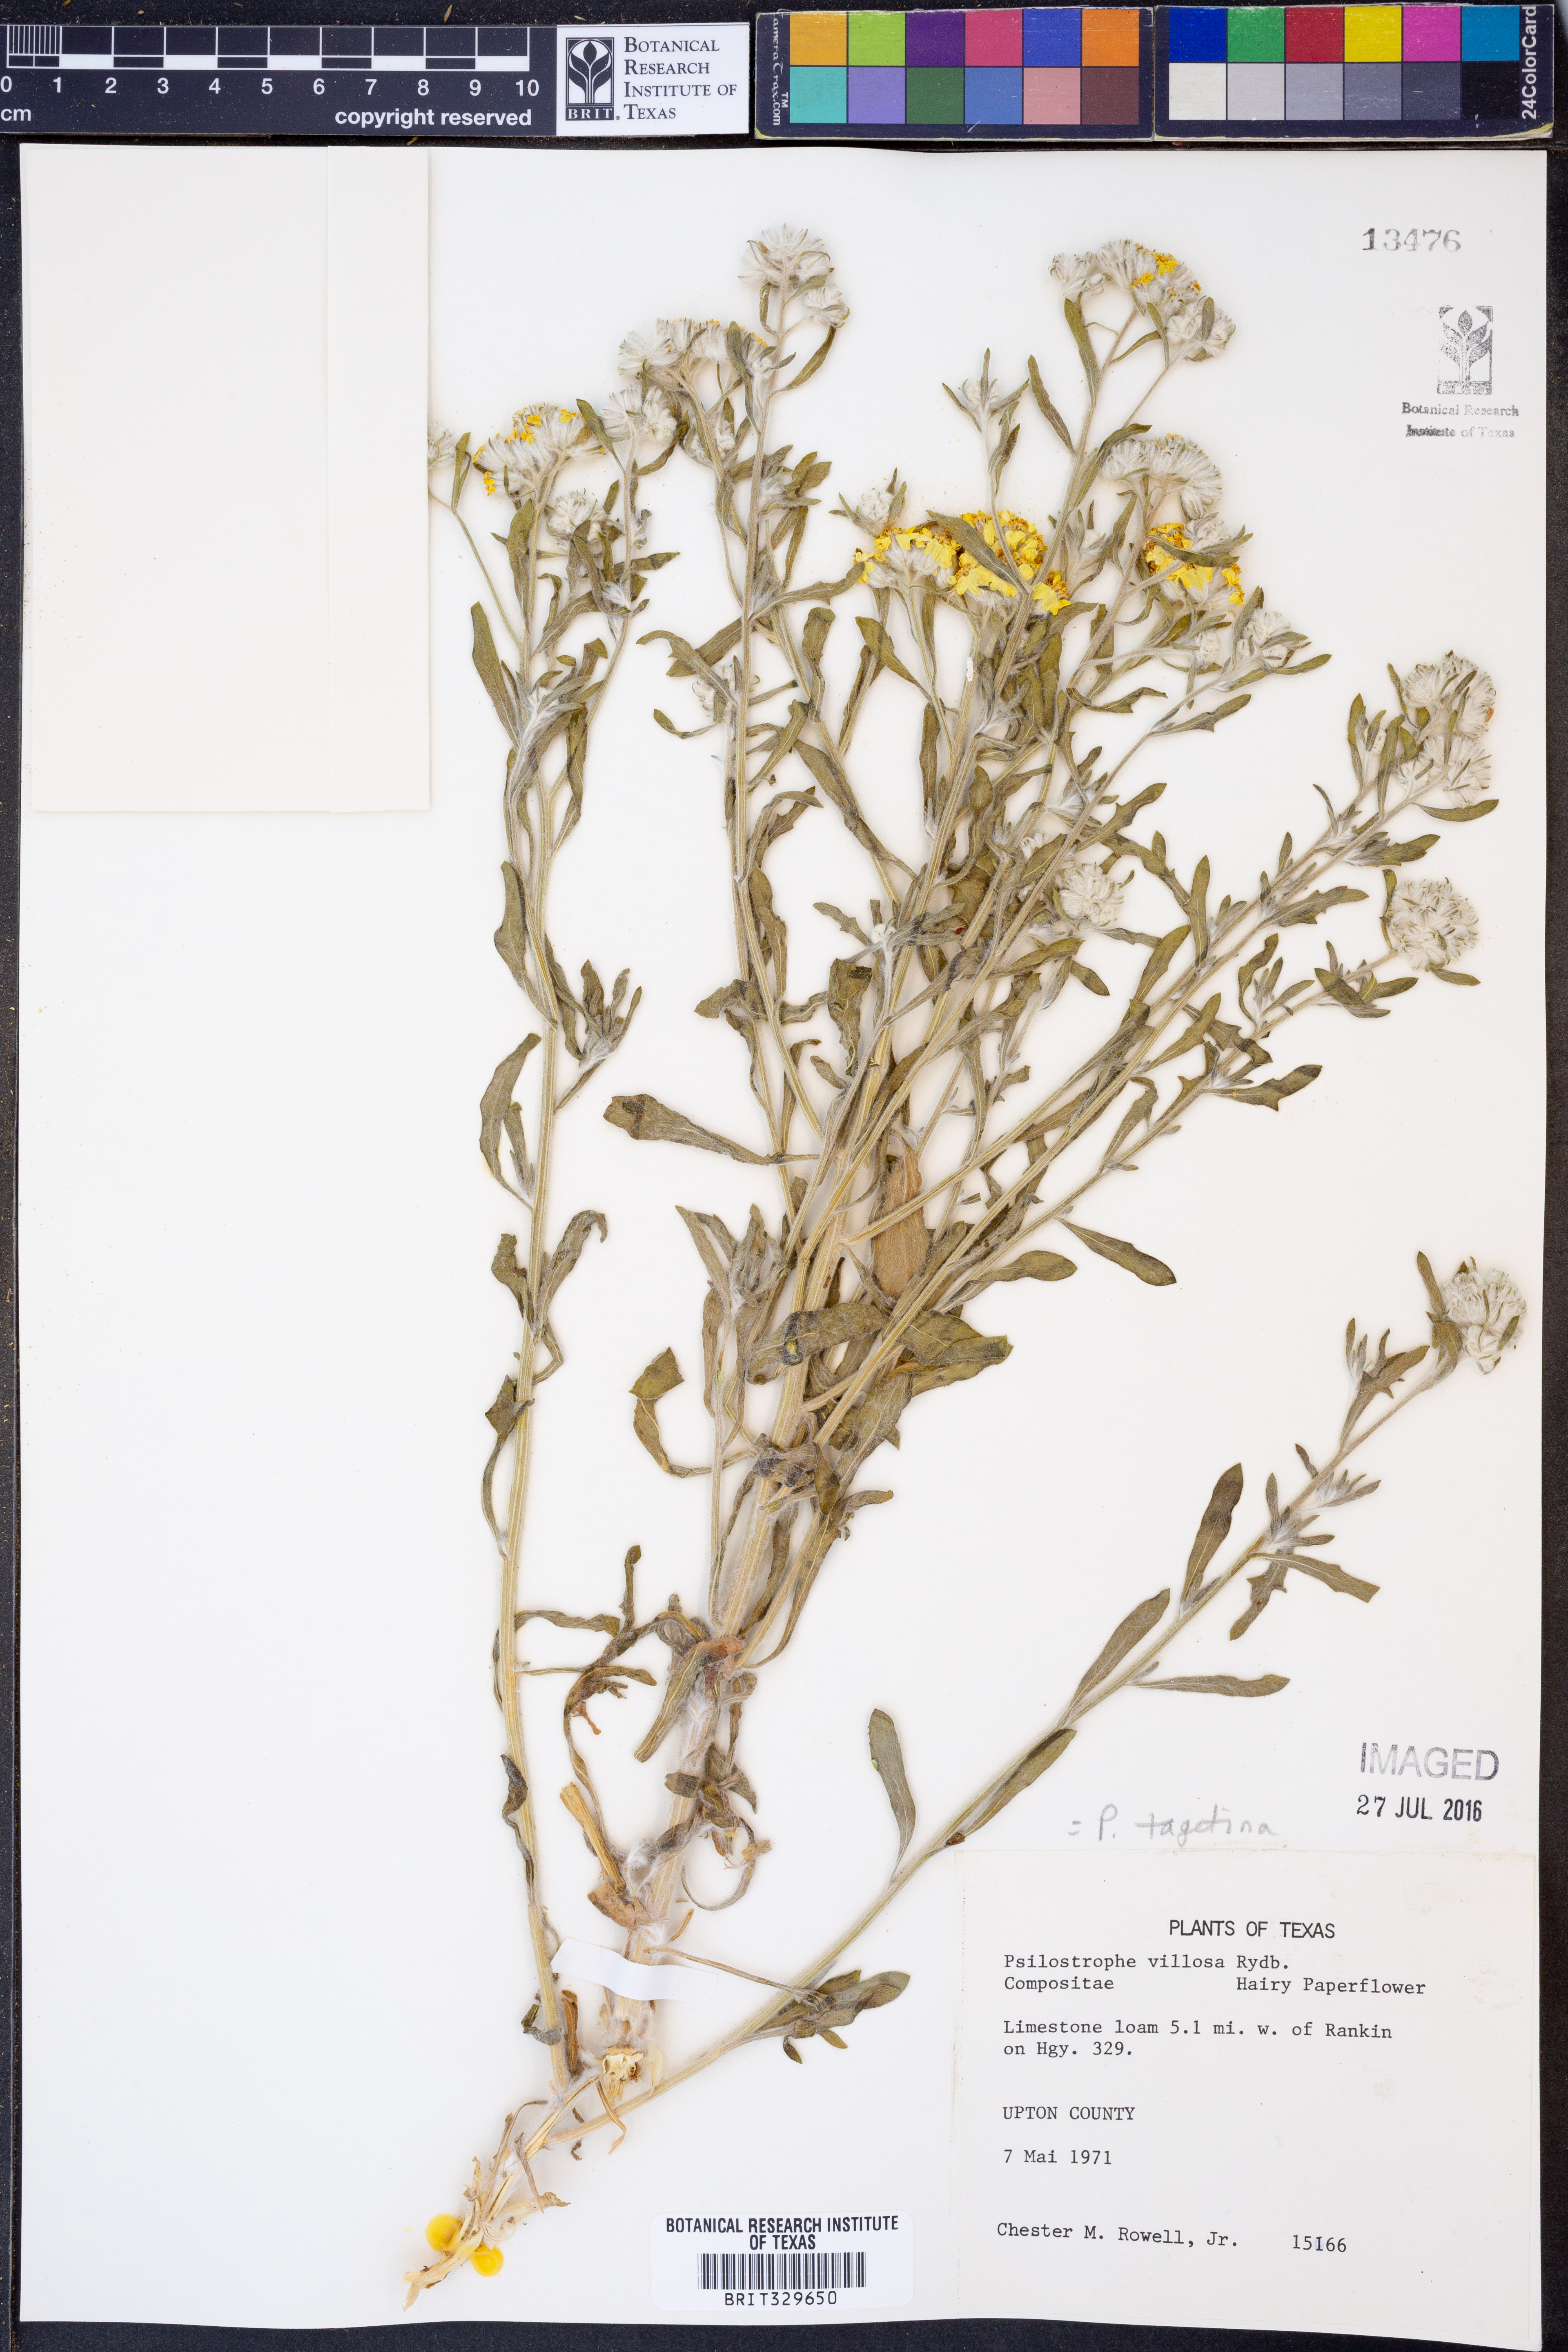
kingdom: Plantae
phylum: Tracheophyta
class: Magnoliopsida
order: Asterales
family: Asteraceae
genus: Psilostrophe
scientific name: Psilostrophe tagetina
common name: Marigold paper-flower
